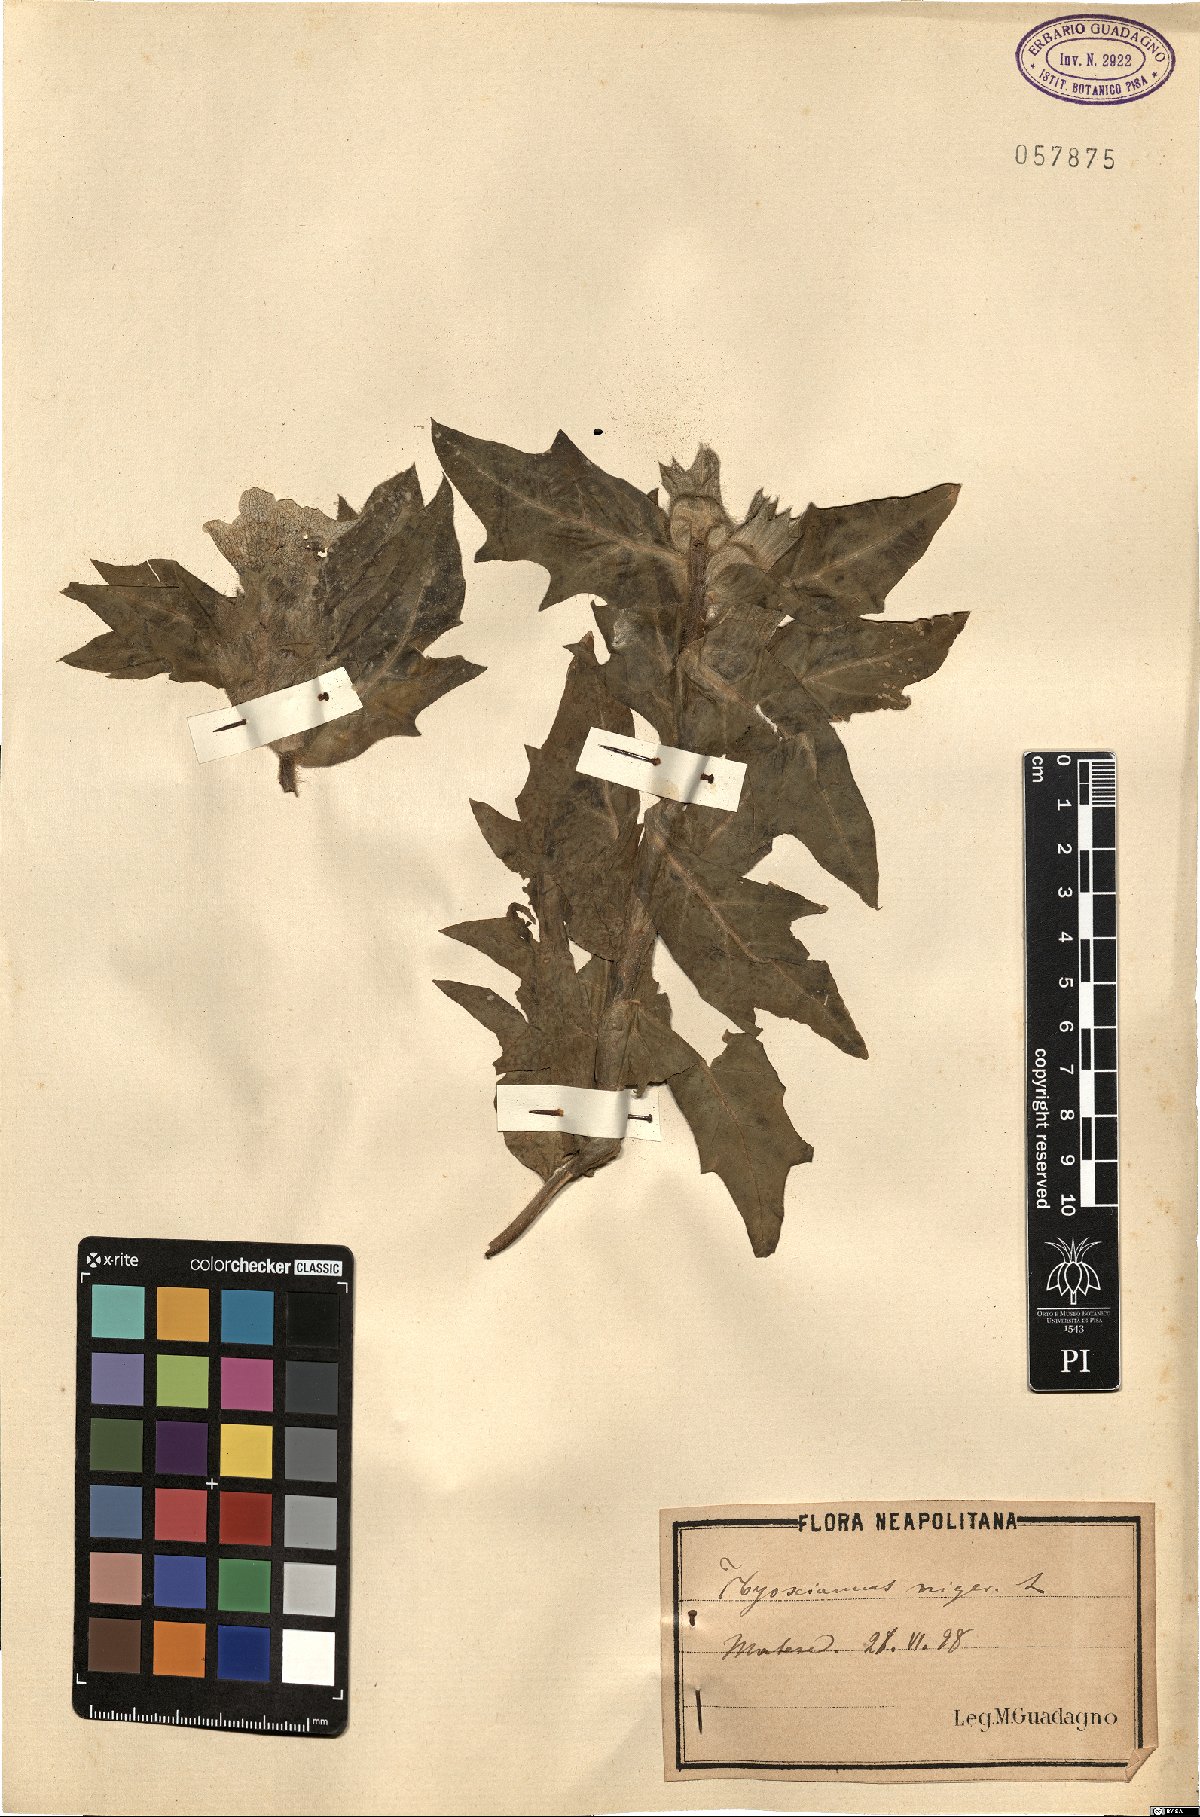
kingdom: Plantae
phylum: Tracheophyta
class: Magnoliopsida
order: Solanales
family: Solanaceae
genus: Hyoscyamus
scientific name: Hyoscyamus niger
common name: Henbane
